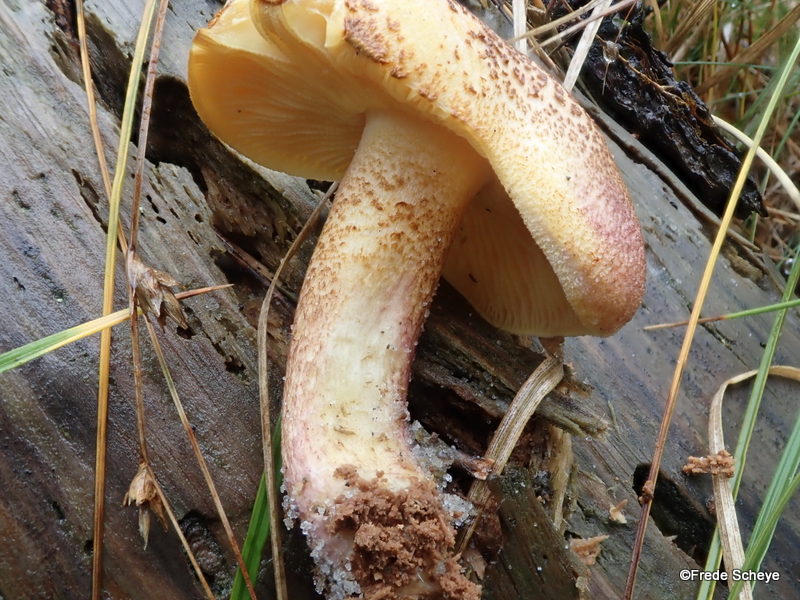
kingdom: Fungi
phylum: Basidiomycota
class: Agaricomycetes
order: Agaricales
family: Tricholomataceae
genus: Tricholomopsis
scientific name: Tricholomopsis rutilans
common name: purpur-væbnerhat
